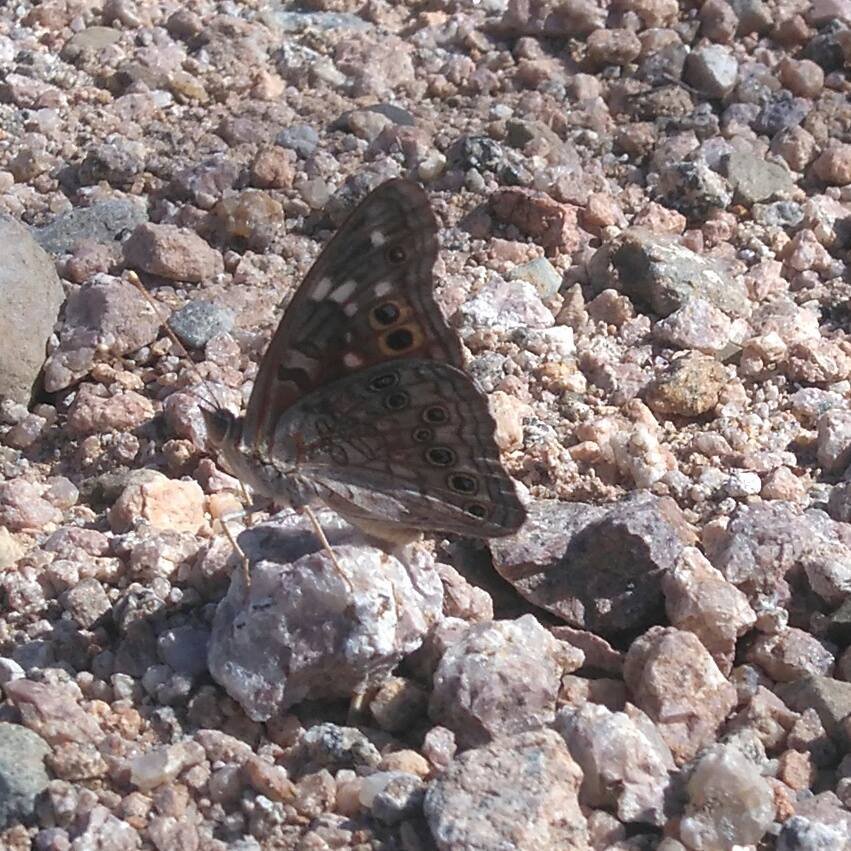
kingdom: Animalia
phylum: Arthropoda
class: Insecta
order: Lepidoptera
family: Nymphalidae
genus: Asterocampa
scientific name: Asterocampa leilia
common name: Empress Leilia
